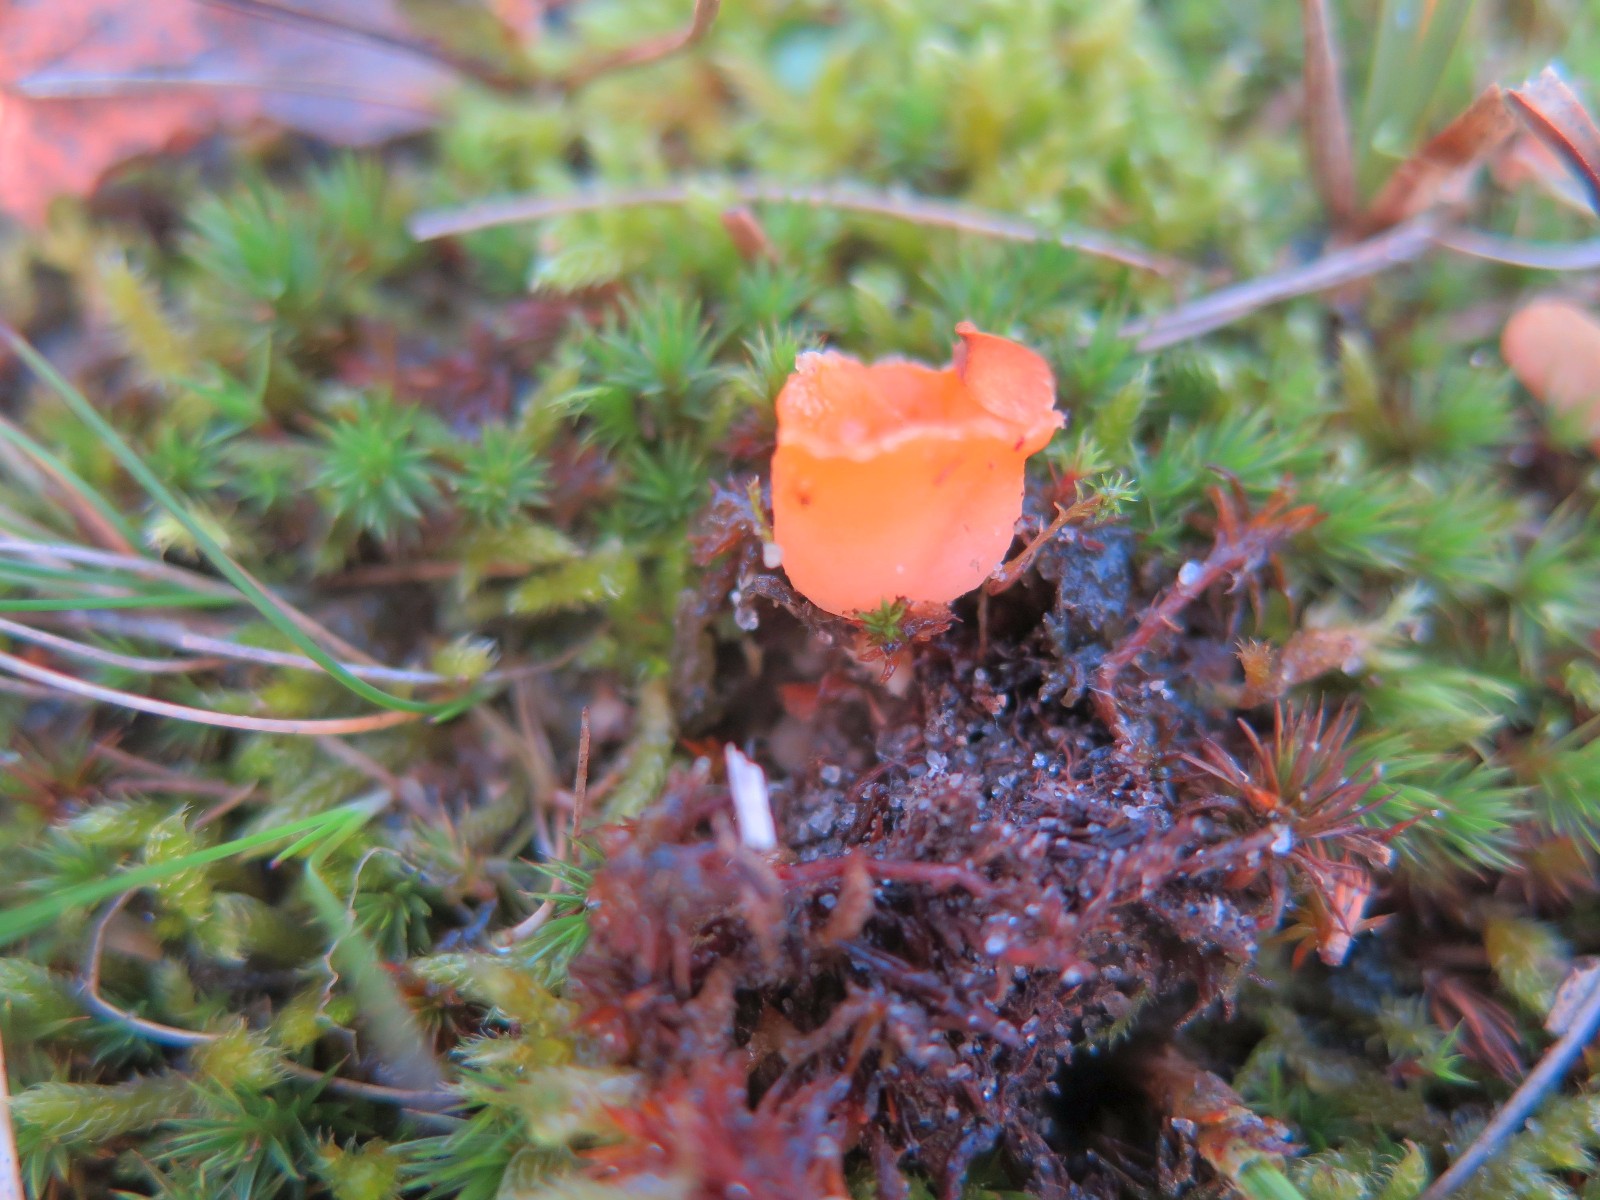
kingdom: Fungi
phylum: Ascomycota
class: Pezizomycetes
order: Pezizales
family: Pyronemataceae
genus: Neottiella
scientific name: Neottiella rutilans
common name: jomfruhår-mosbæger
